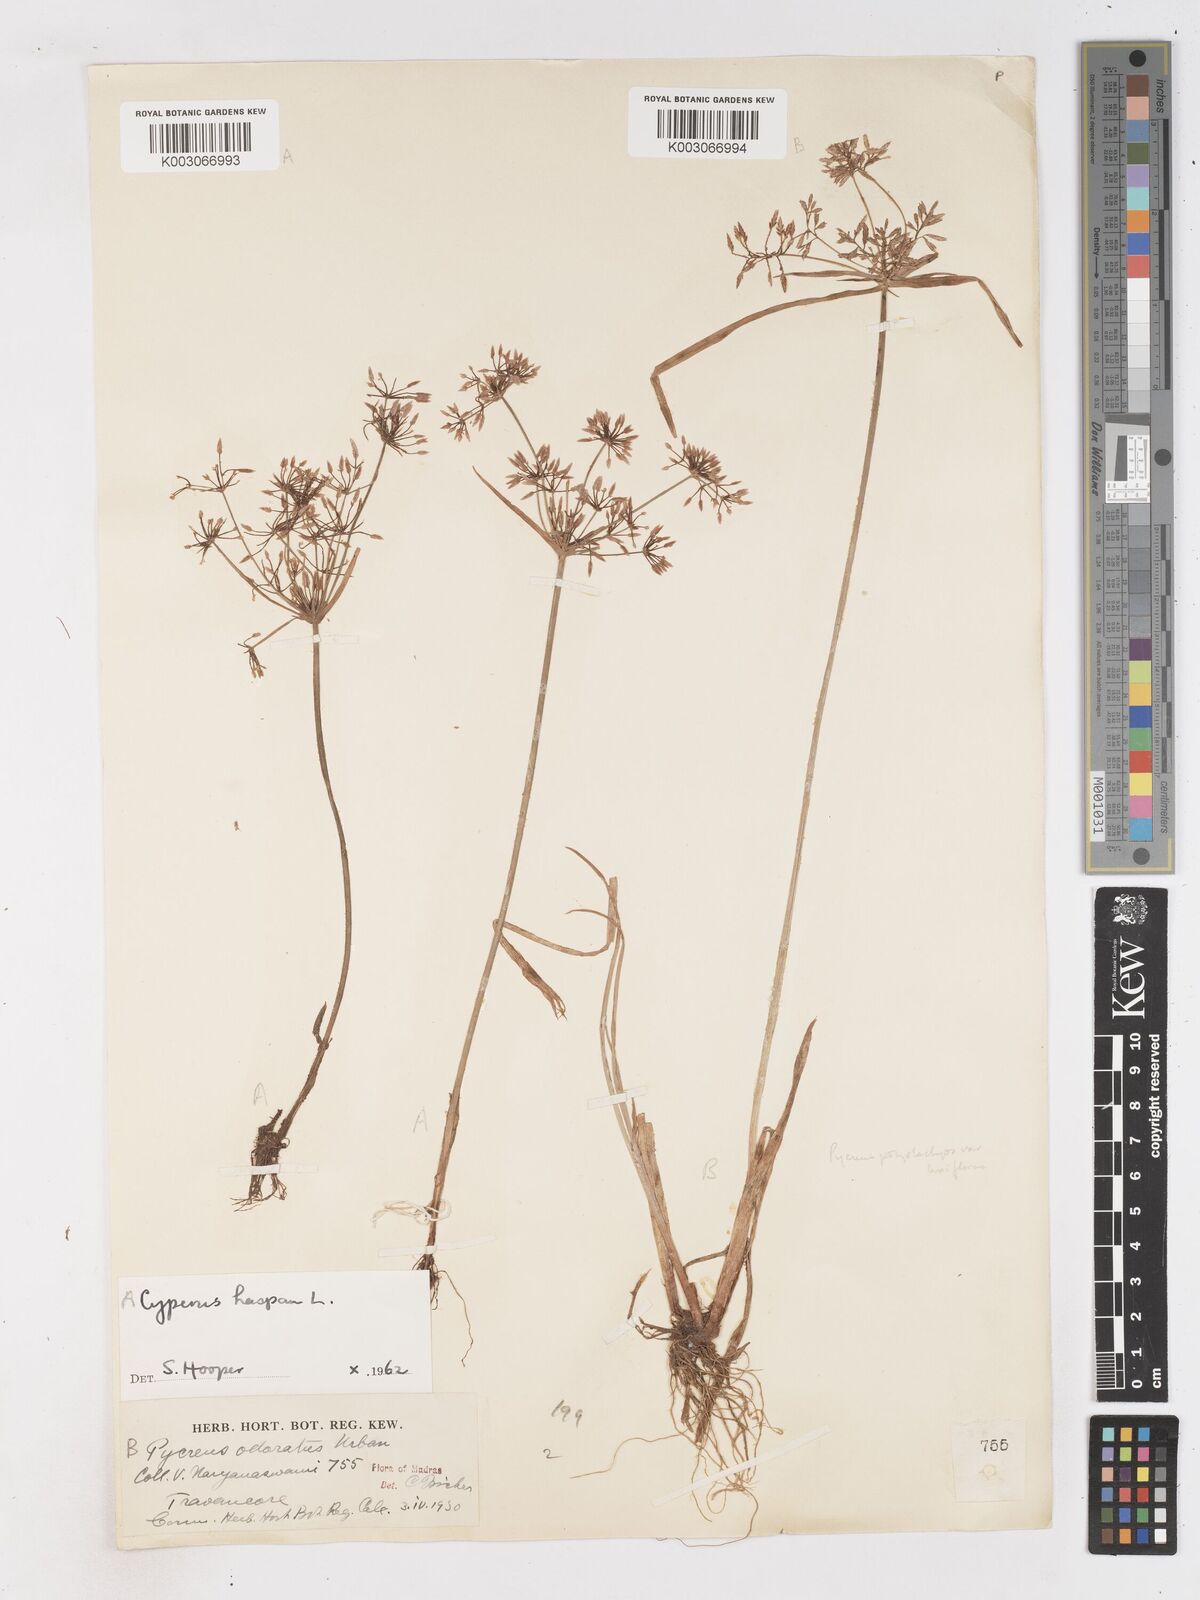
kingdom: Plantae
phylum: Tracheophyta
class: Liliopsida
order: Poales
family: Cyperaceae
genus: Cyperus
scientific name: Cyperus haspan
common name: Haspan flatsedge
